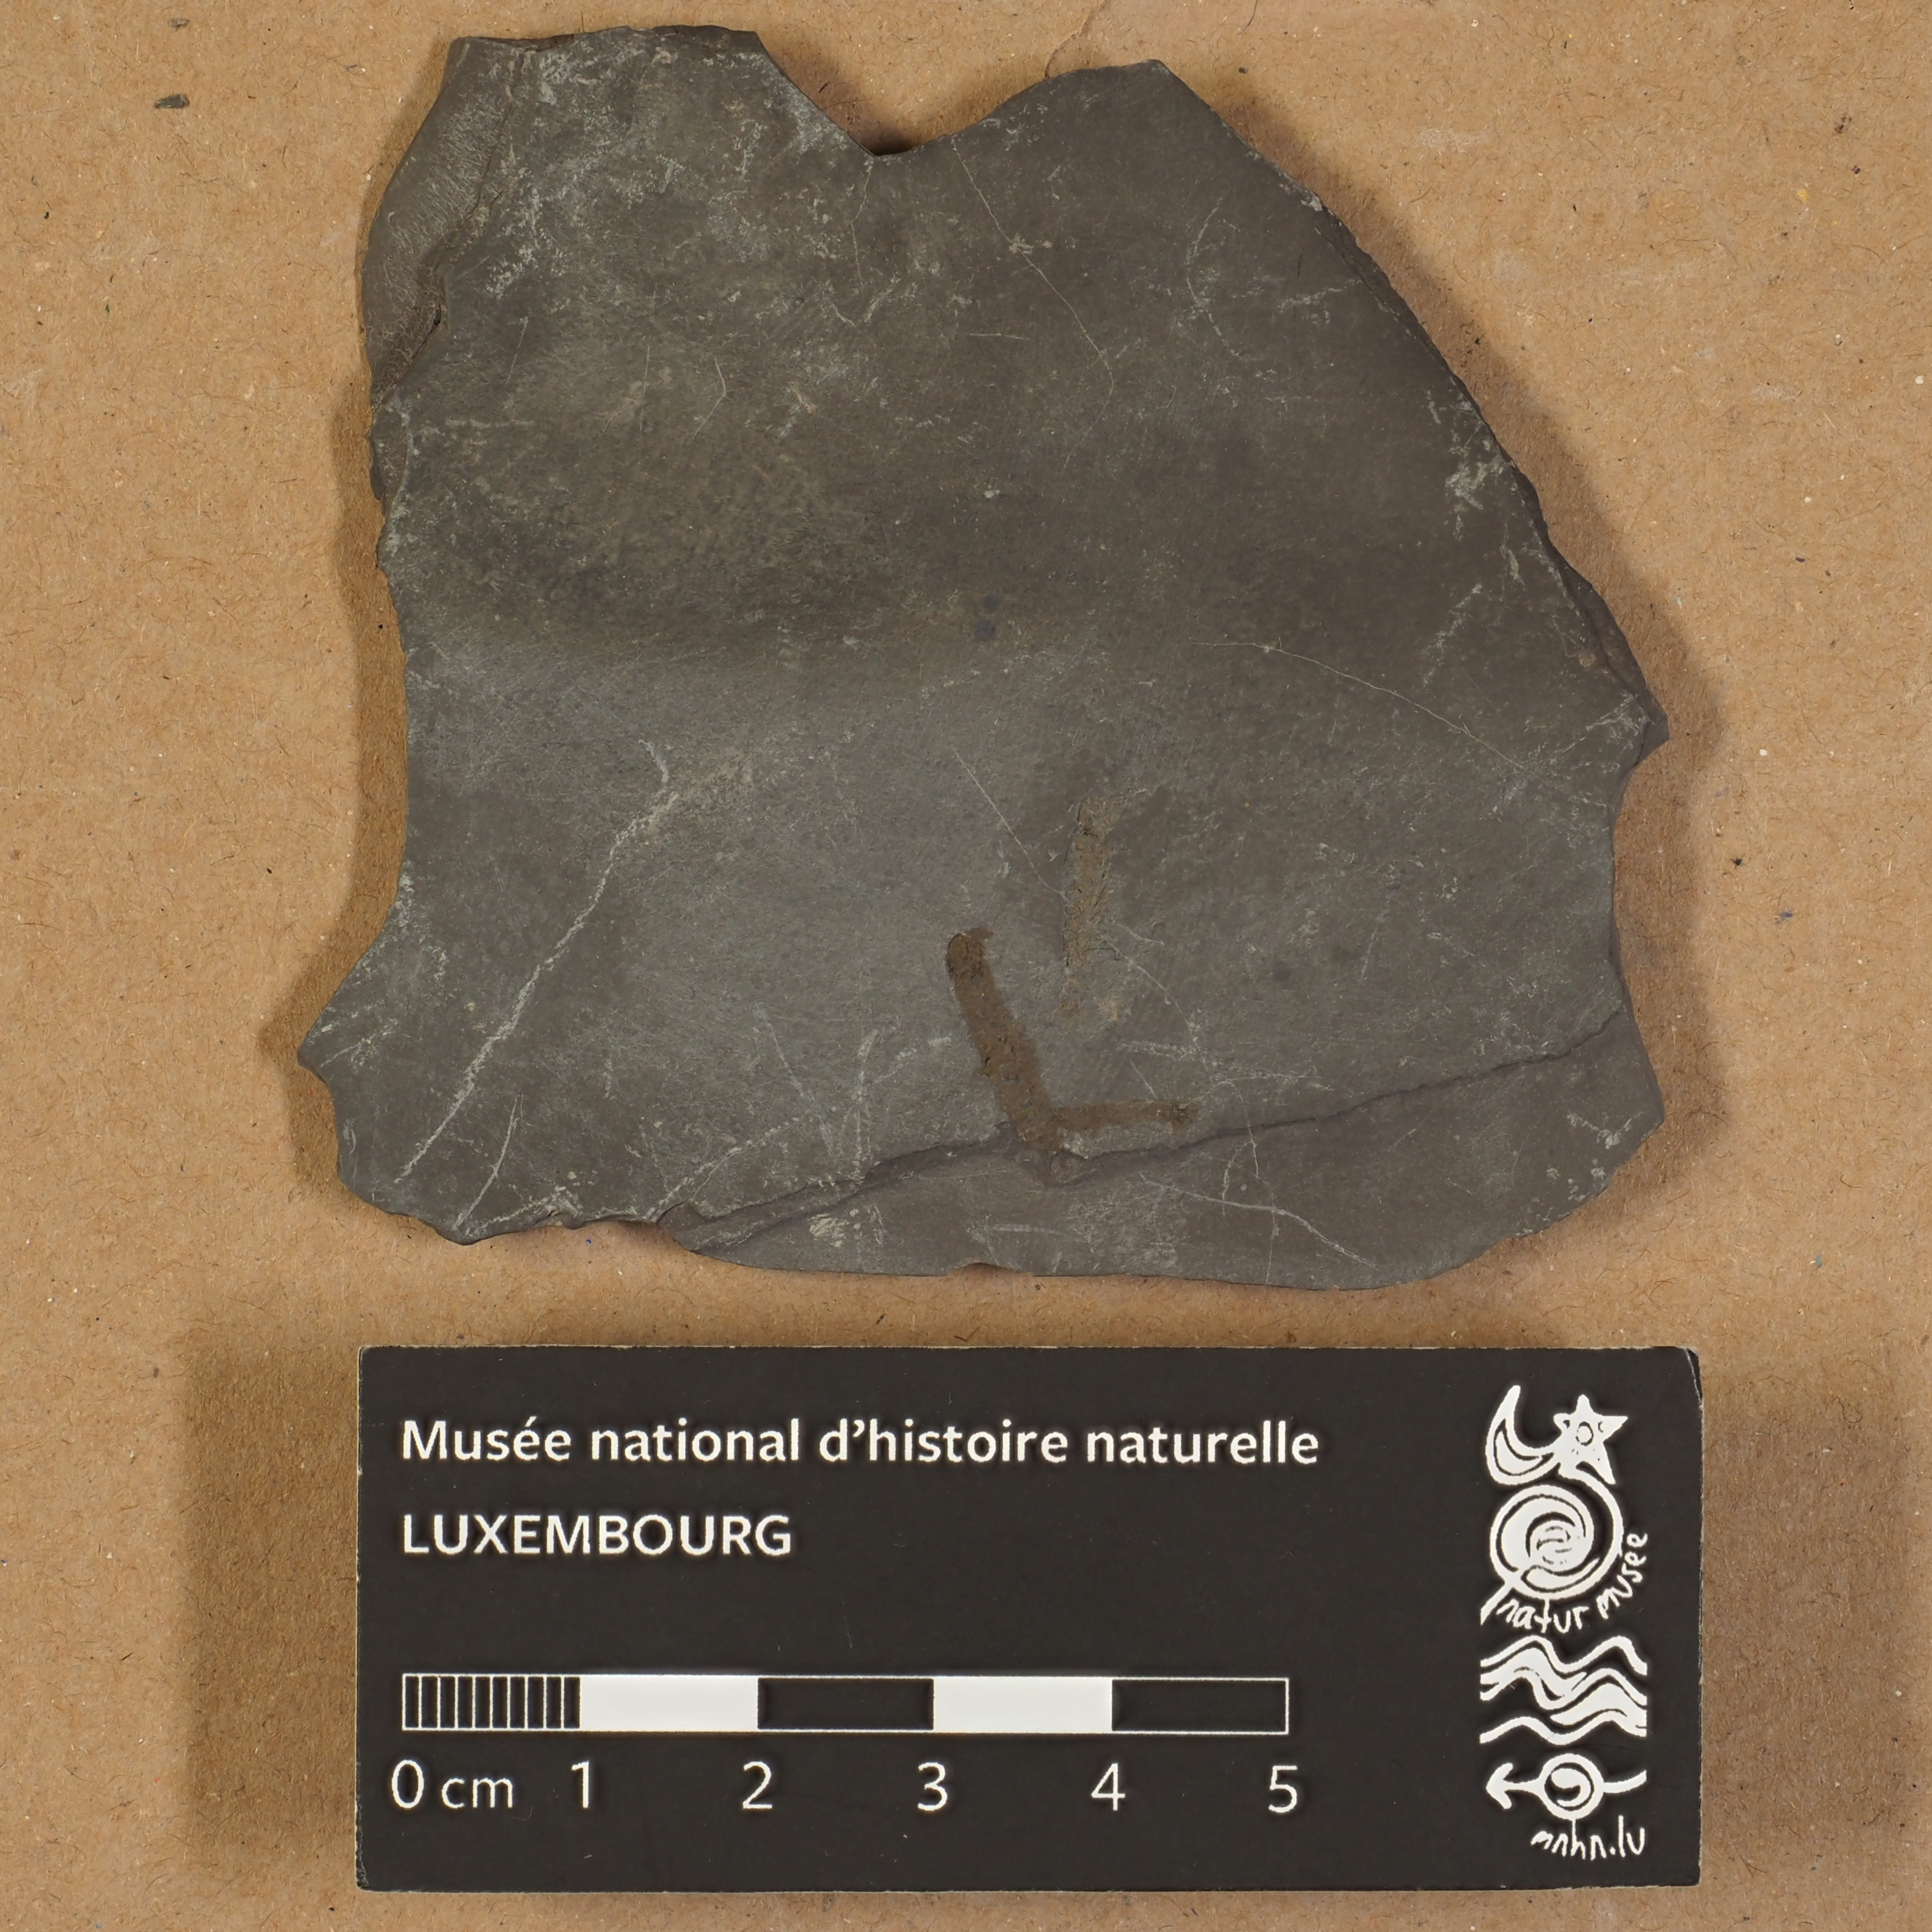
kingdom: Animalia
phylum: Arthropoda
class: Malacostraca
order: Anaspidacea
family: Uronectidae
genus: Uronectes
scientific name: Uronectes Gampsonychus fimbriatus
